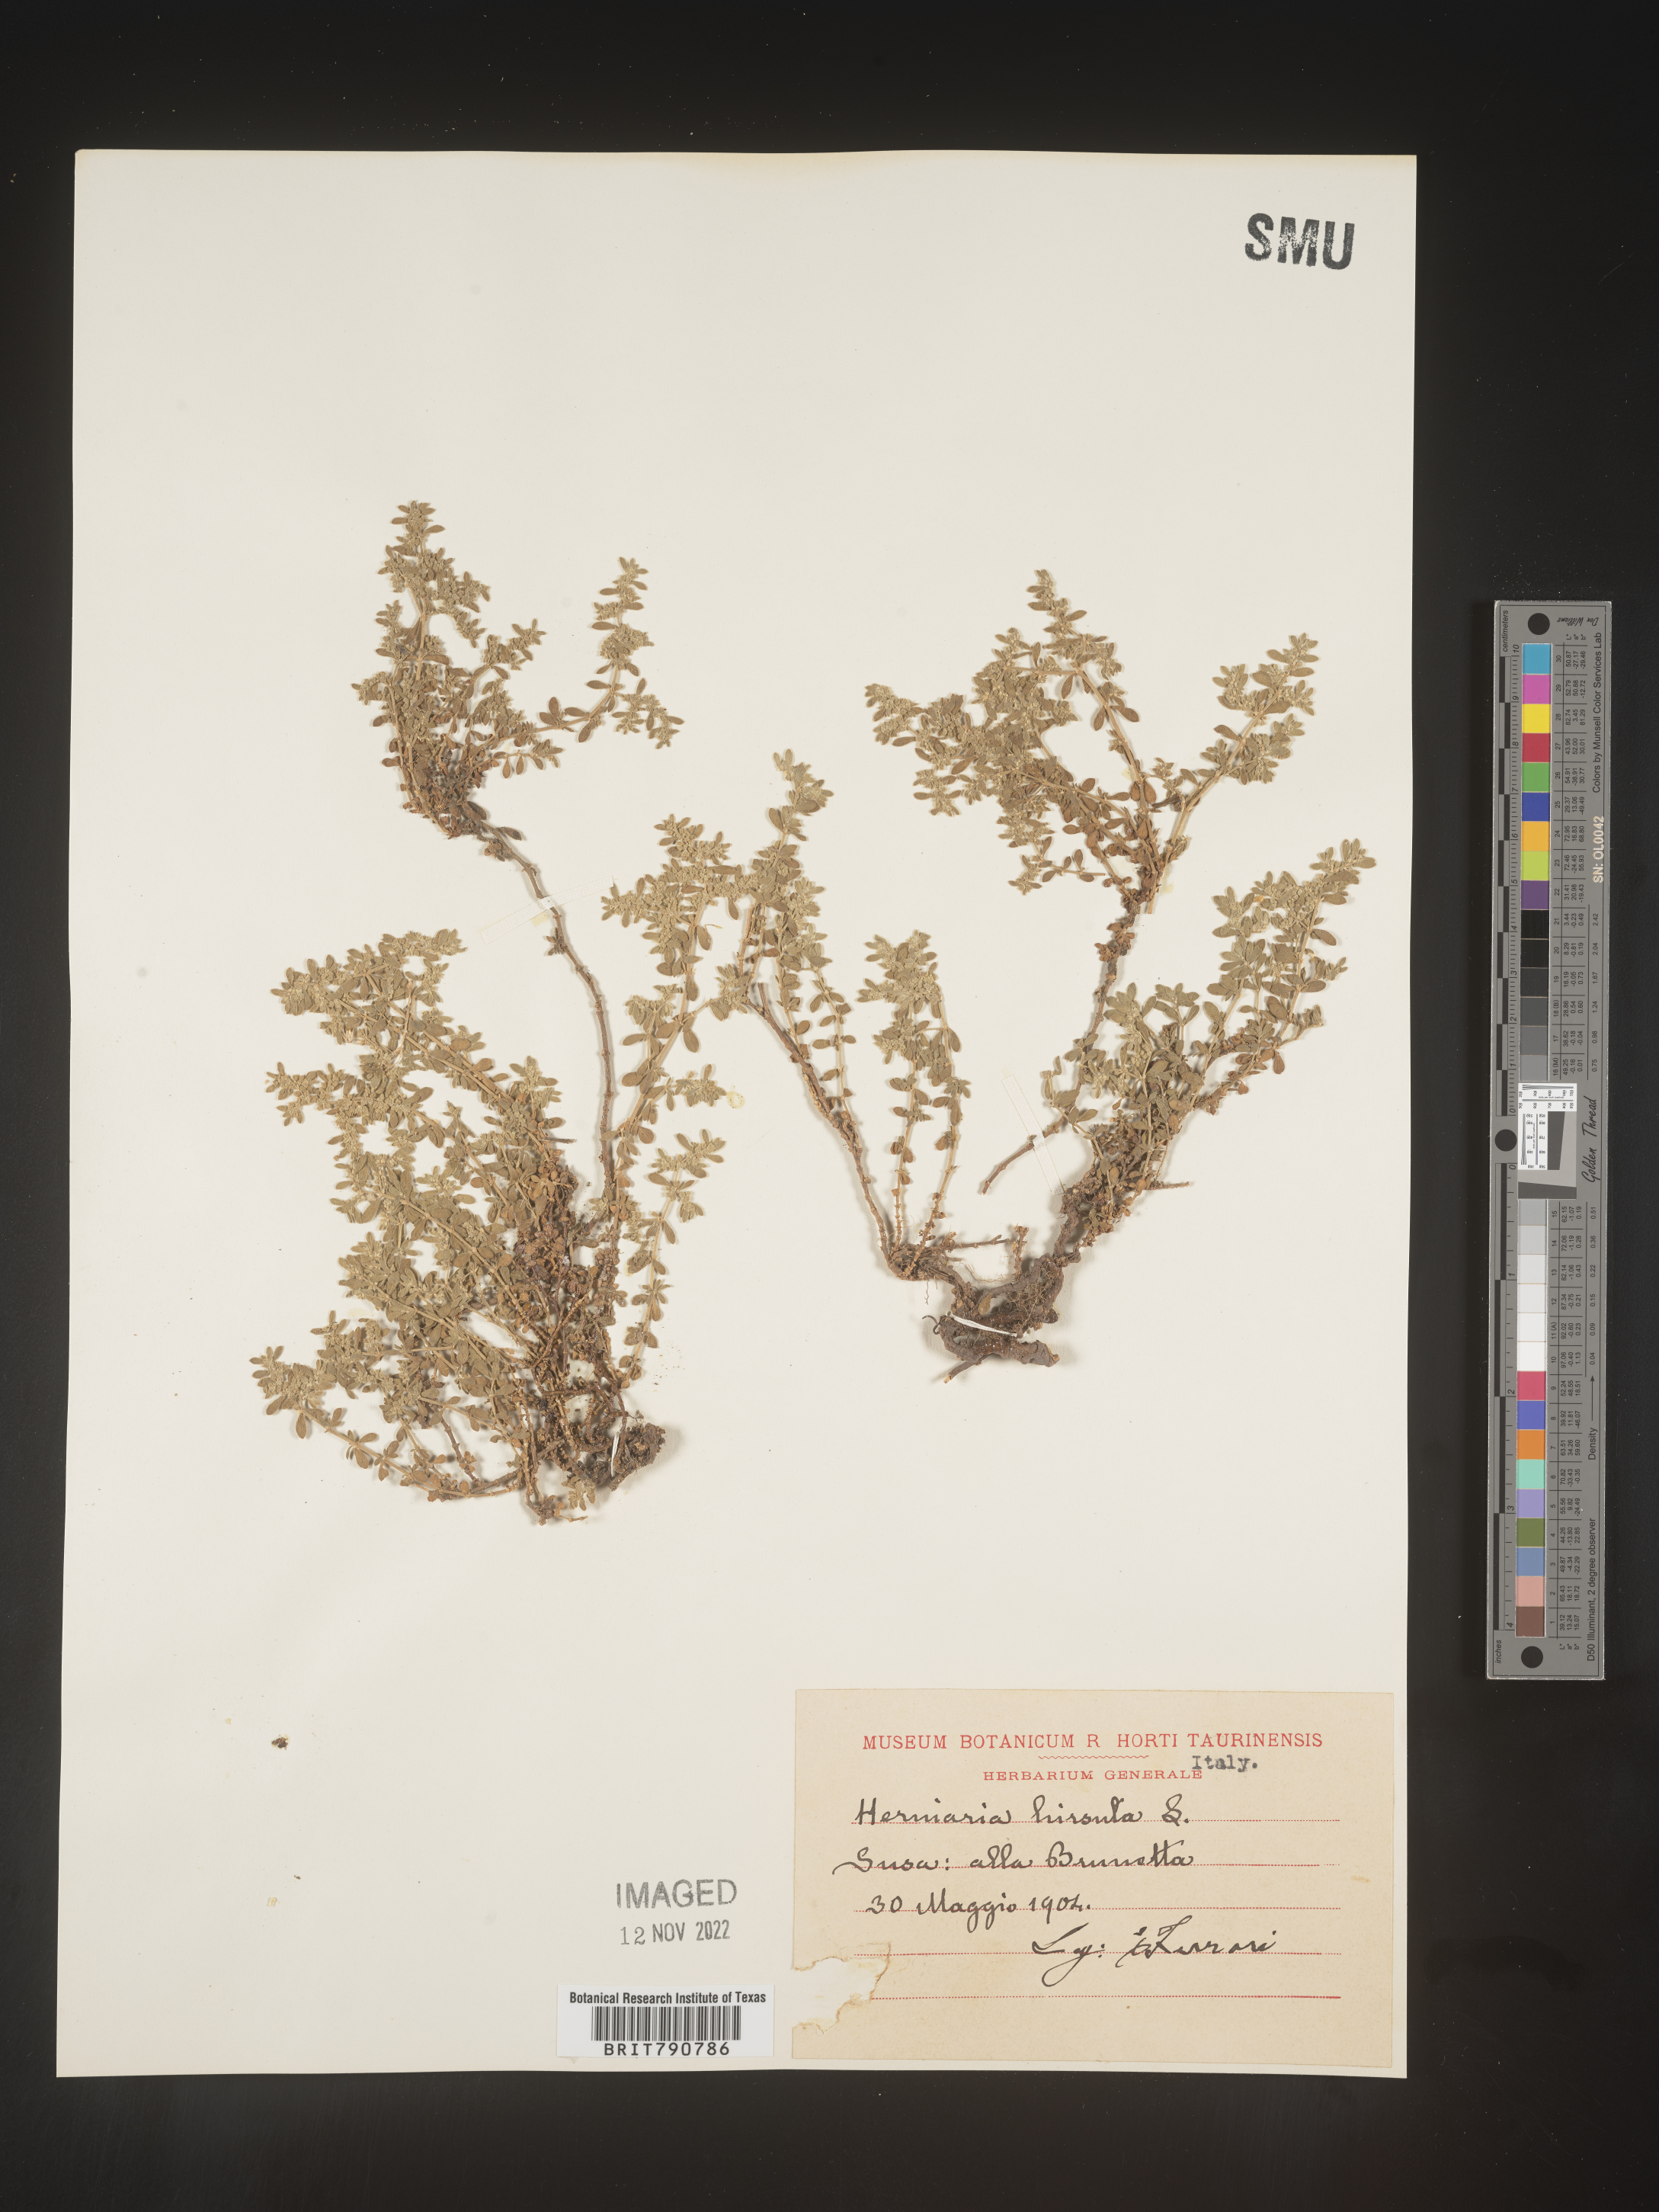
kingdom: Plantae
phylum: Tracheophyta
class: Magnoliopsida
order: Caryophyllales
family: Caryophyllaceae
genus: Herniaria
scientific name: Herniaria
